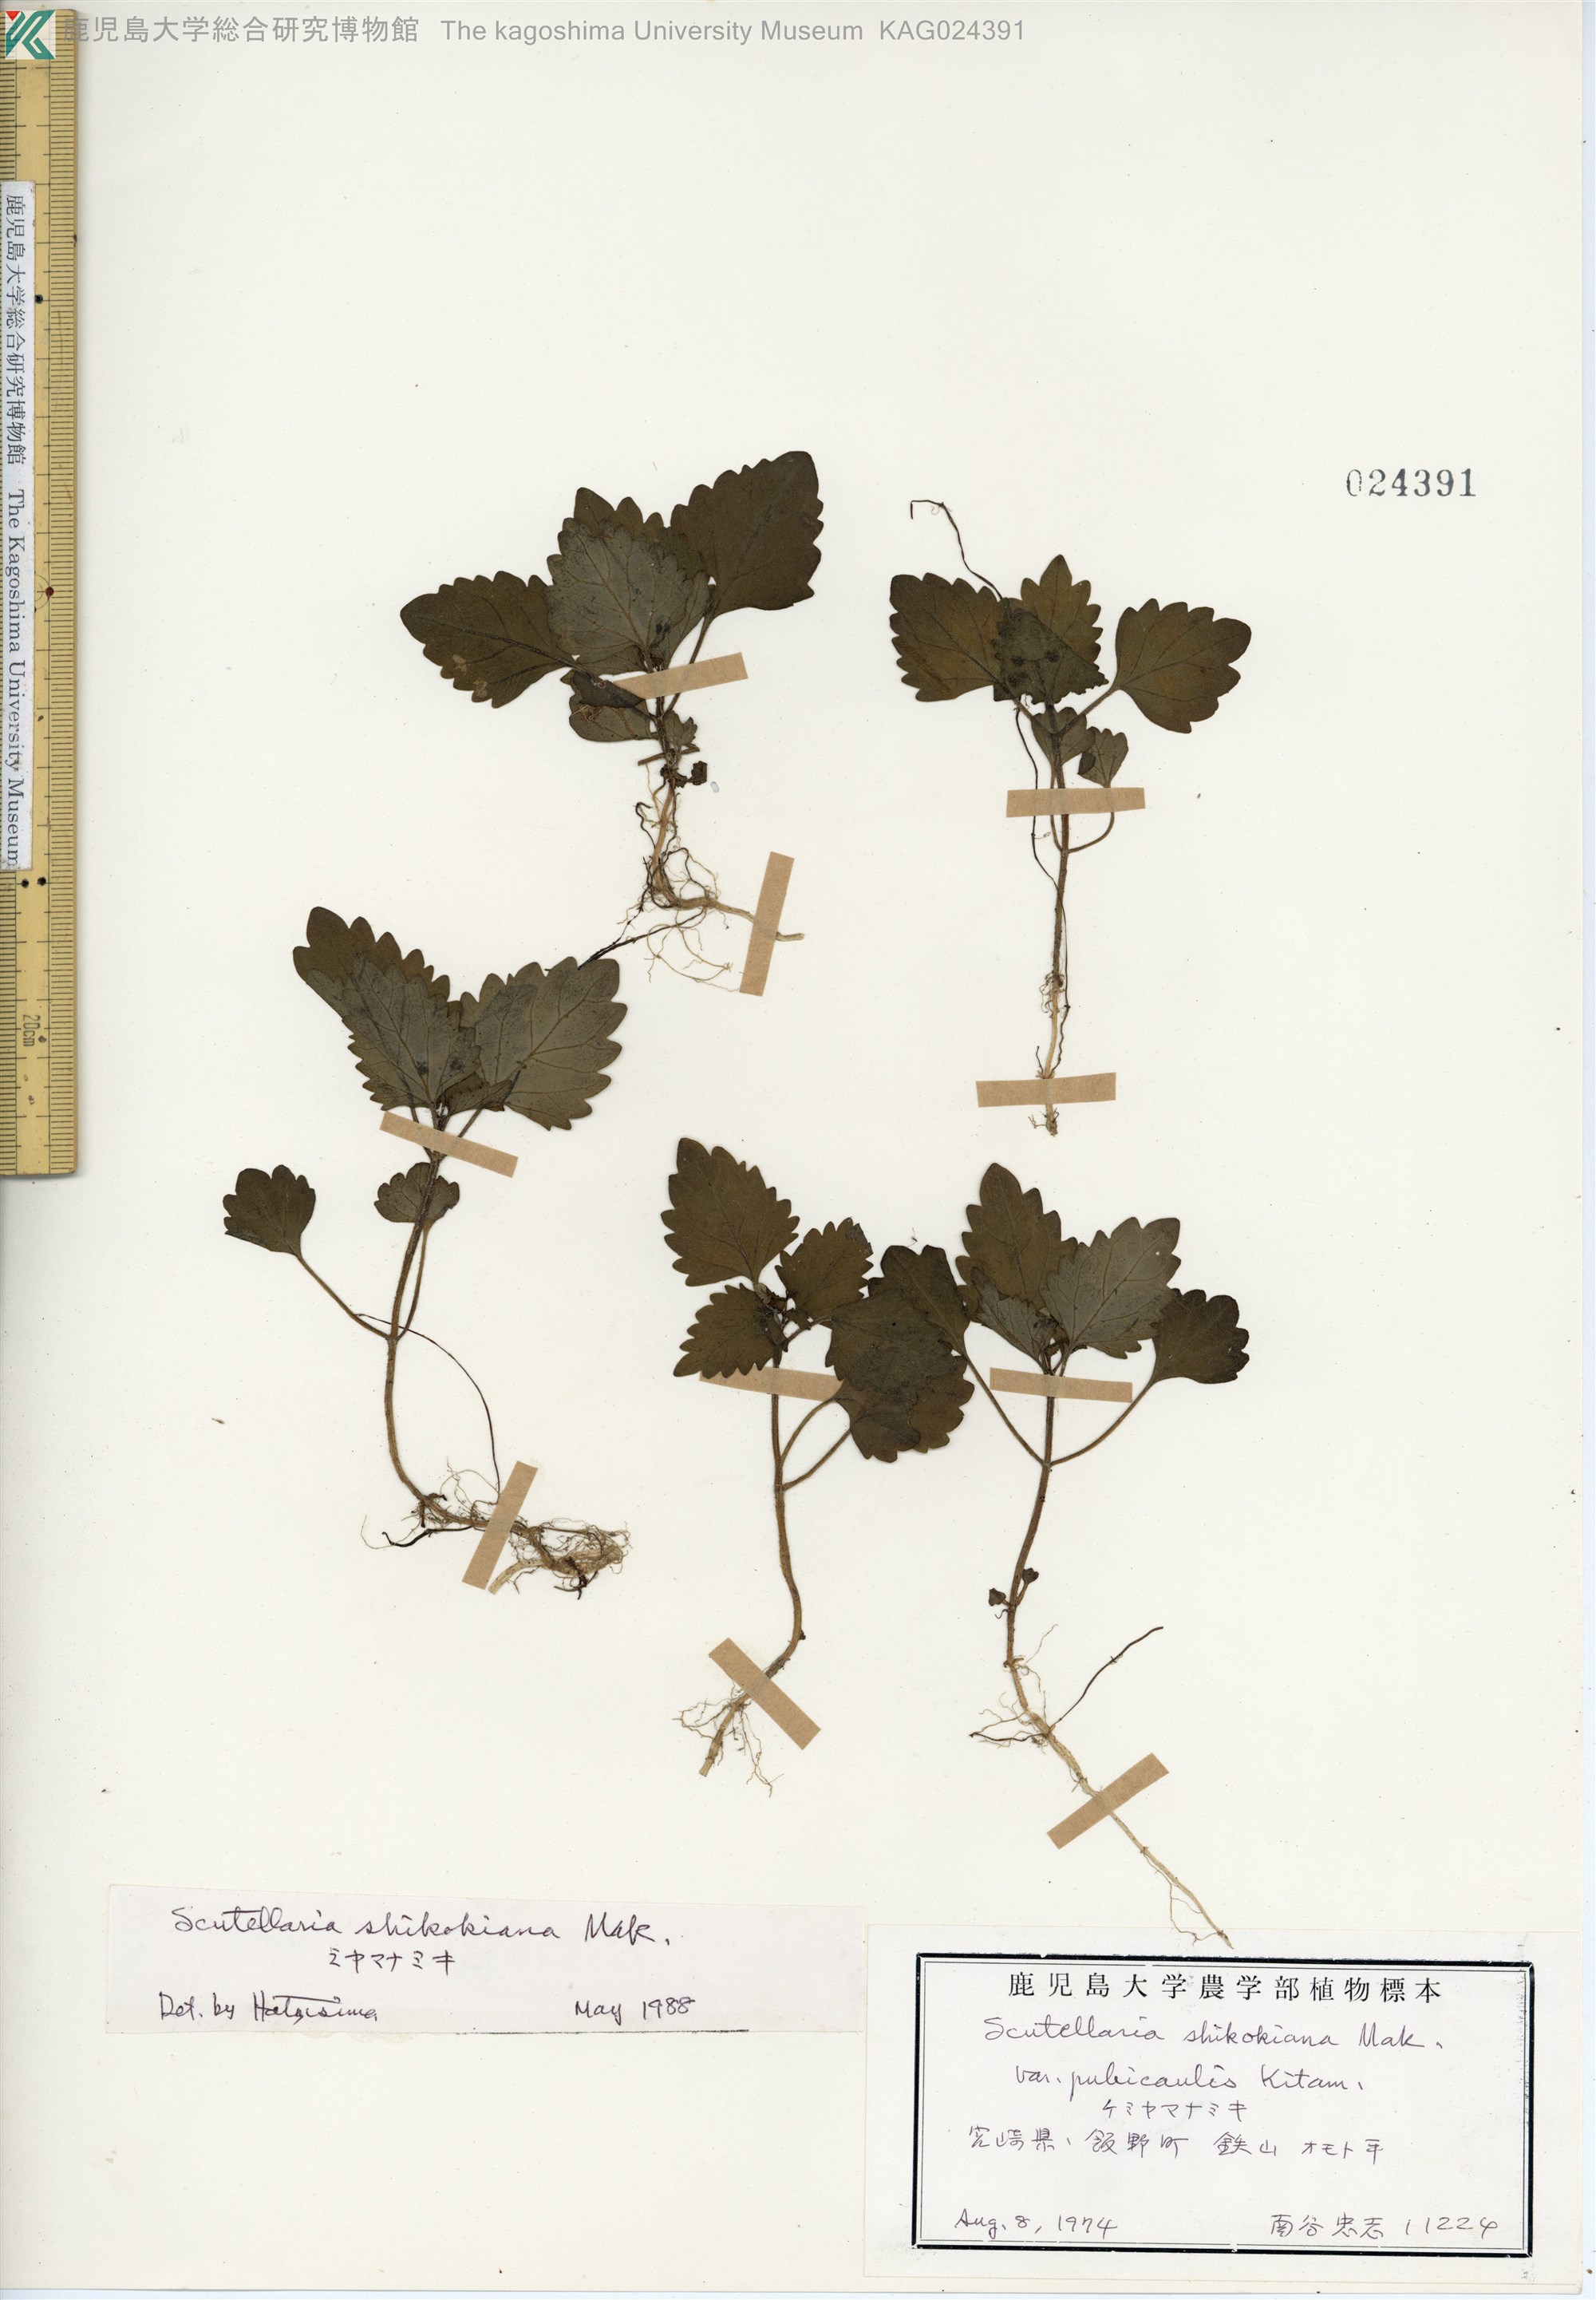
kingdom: Plantae
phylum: Tracheophyta
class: Magnoliopsida
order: Lamiales
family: Lamiaceae
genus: Scutellaria
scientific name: Scutellaria shikokiana
